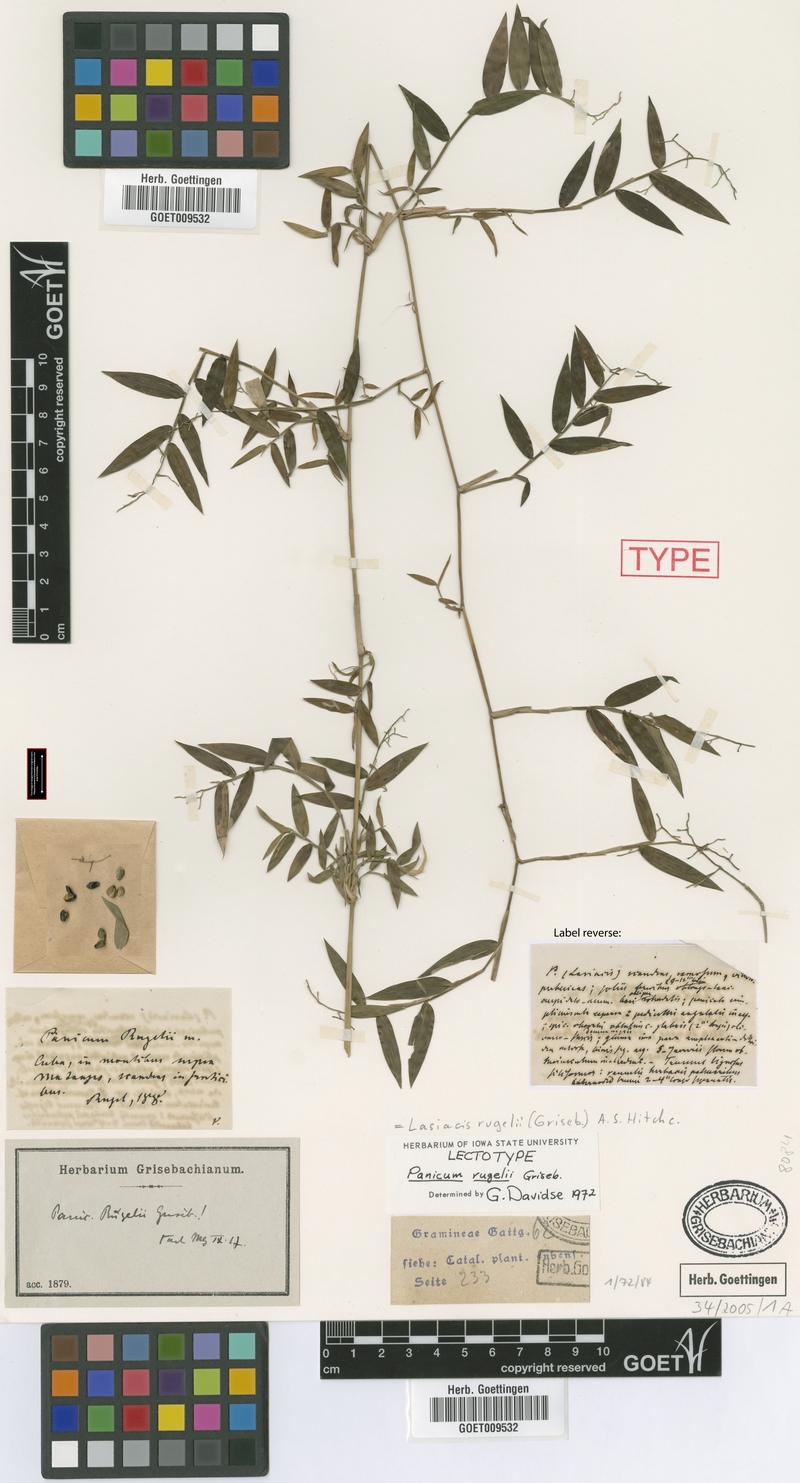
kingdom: Plantae
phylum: Tracheophyta
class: Liliopsida
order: Poales
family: Poaceae
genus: Lasiacis
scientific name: Lasiacis rugelii
